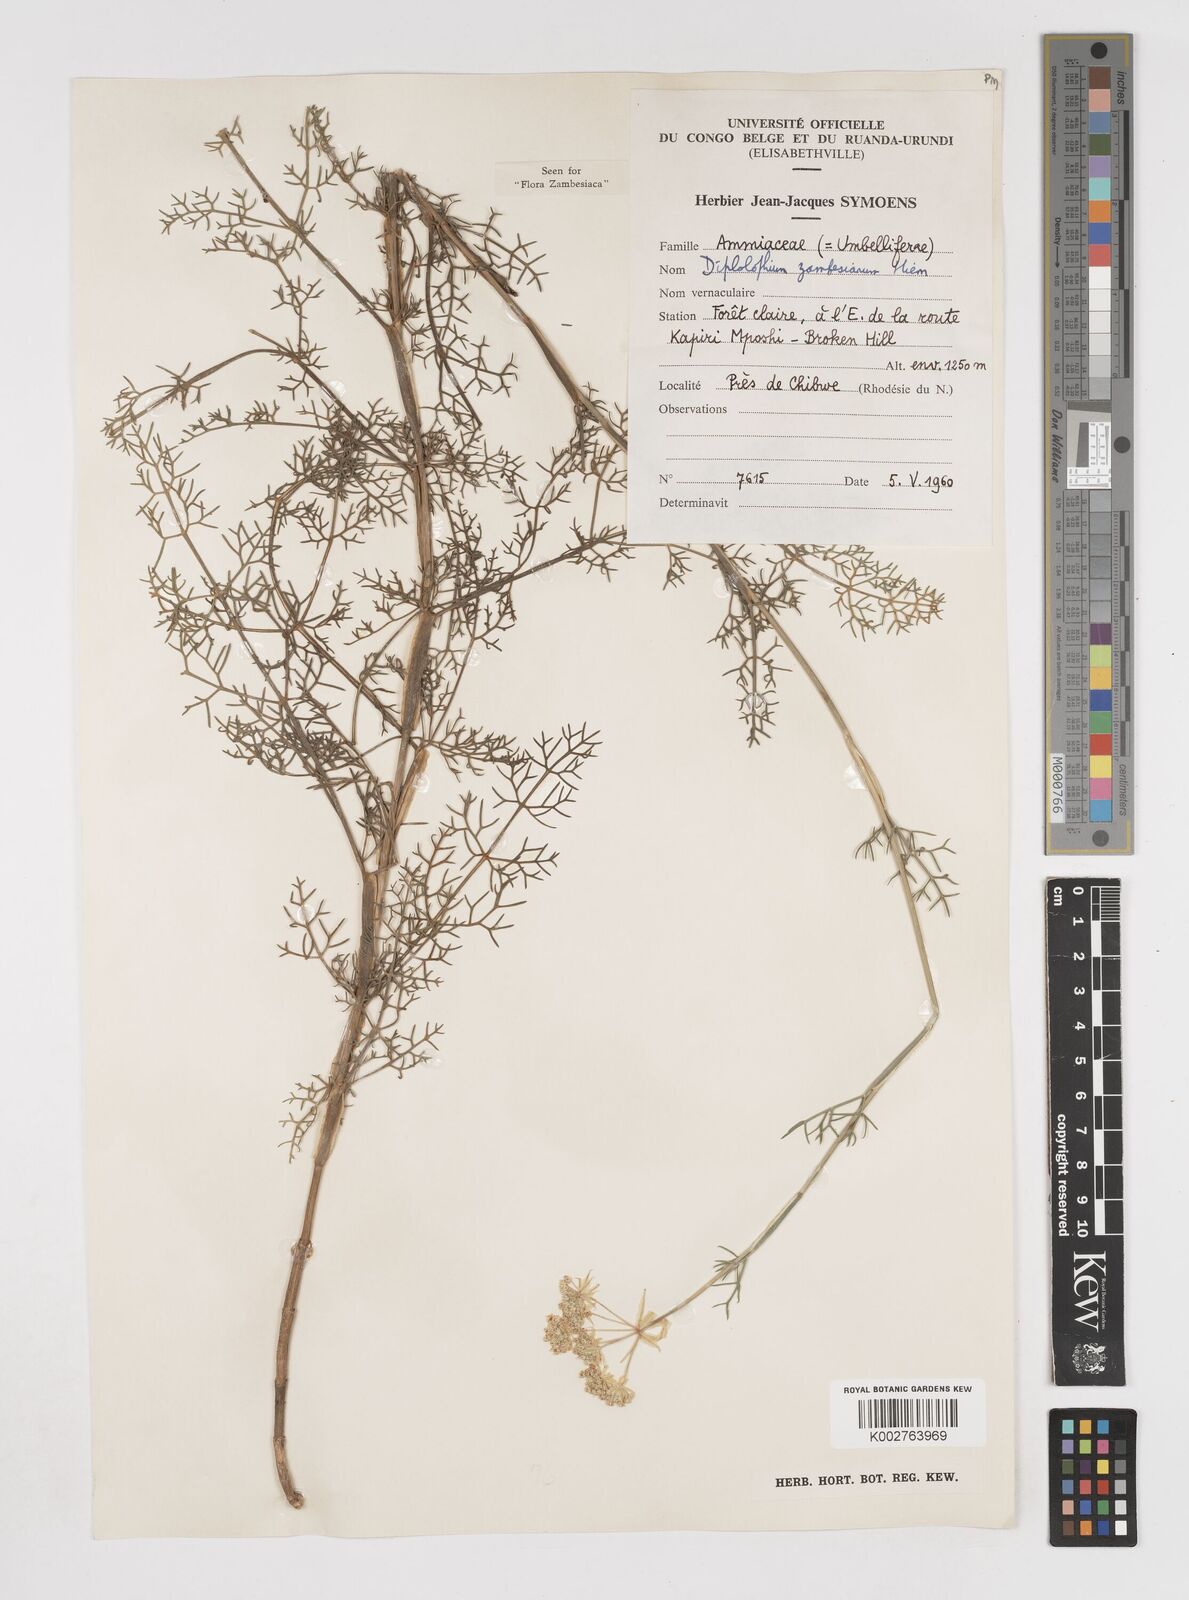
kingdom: Plantae
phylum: Tracheophyta
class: Magnoliopsida
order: Apiales
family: Apiaceae
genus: Diplolophium
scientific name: Diplolophium zambesianum
